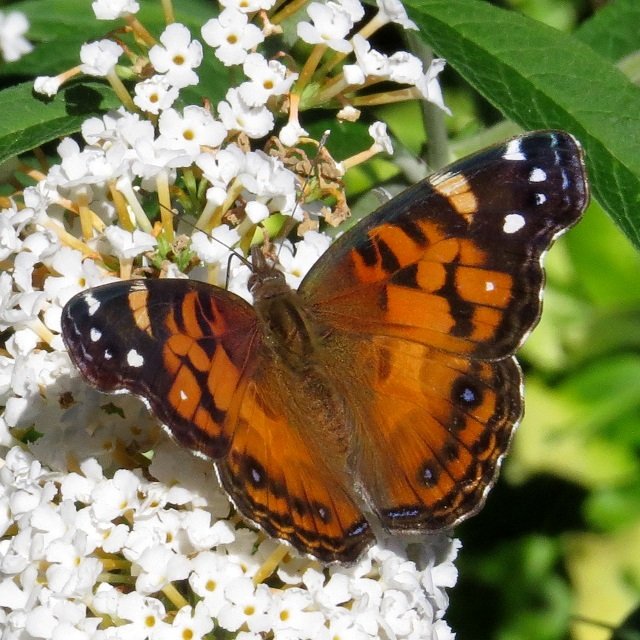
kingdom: Animalia
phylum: Arthropoda
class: Insecta
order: Lepidoptera
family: Nymphalidae
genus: Vanessa
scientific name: Vanessa virginiensis
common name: American Lady
